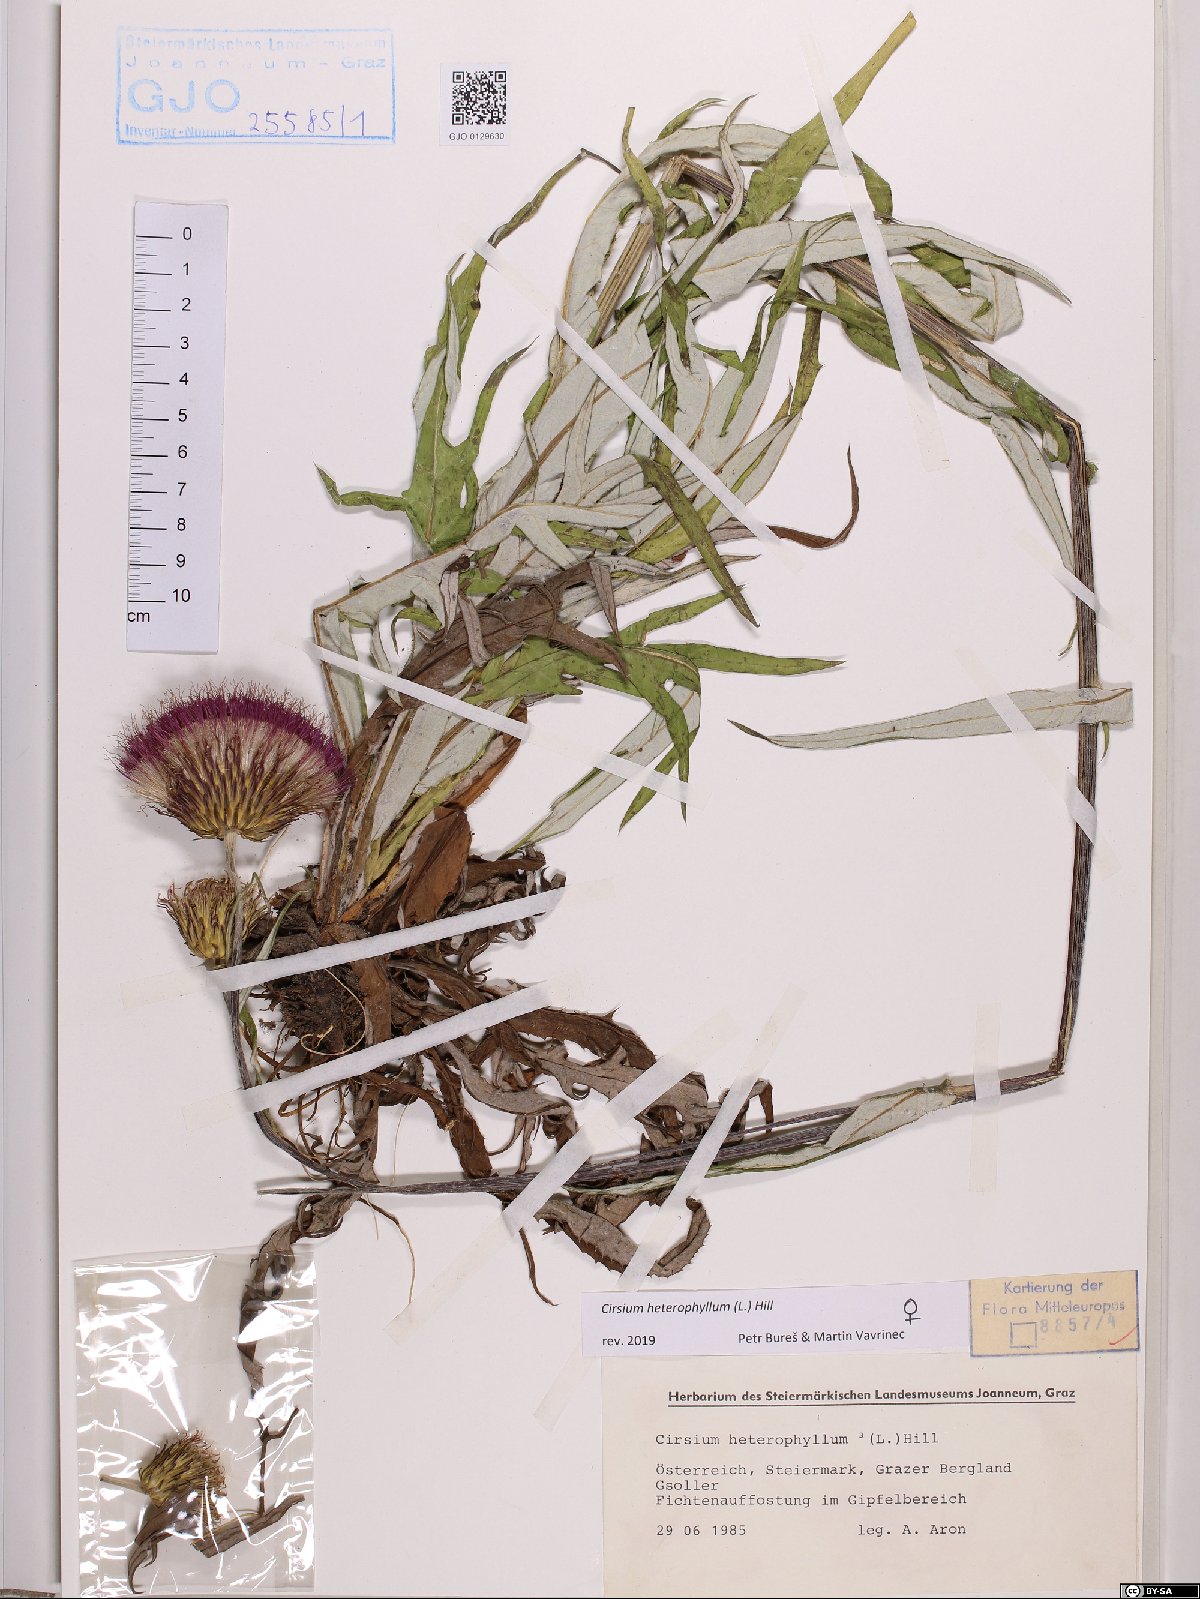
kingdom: Plantae
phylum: Tracheophyta
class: Magnoliopsida
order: Asterales
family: Asteraceae
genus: Cirsium
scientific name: Cirsium heterophyllum
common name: Melancholy thistle
